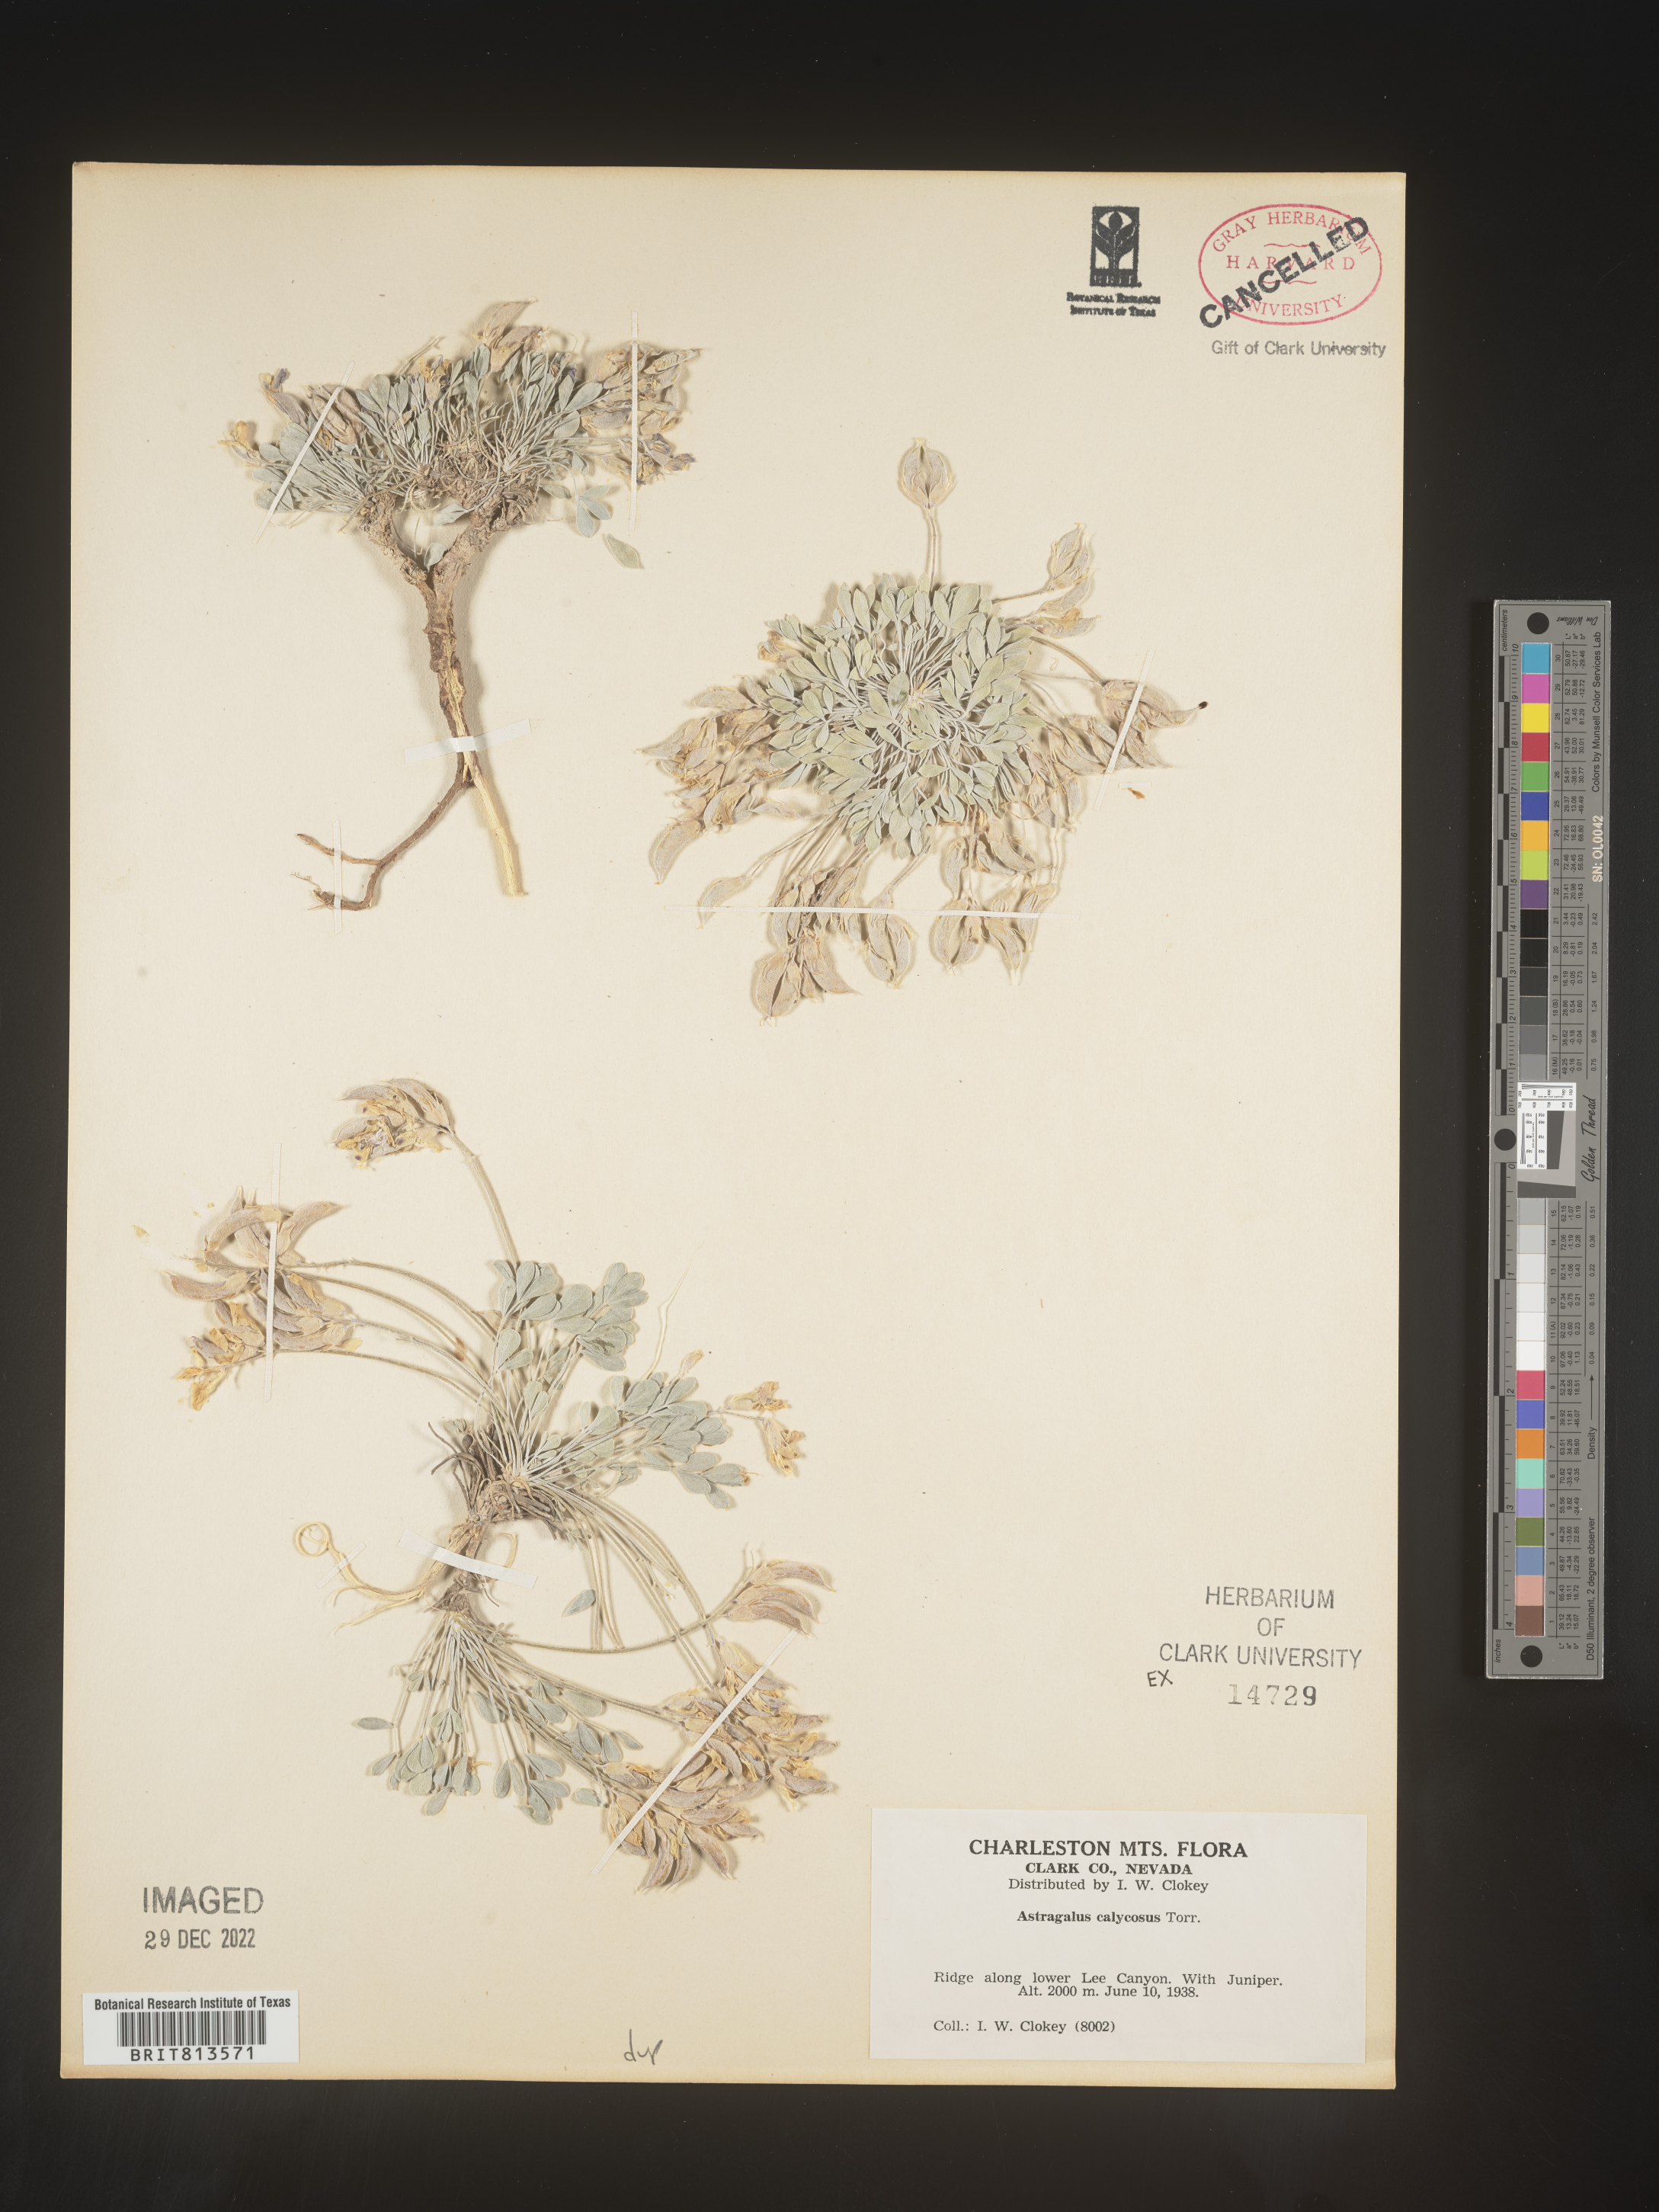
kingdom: Plantae
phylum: Tracheophyta
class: Magnoliopsida
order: Fabales
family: Fabaceae
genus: Astragalus
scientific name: Astragalus
